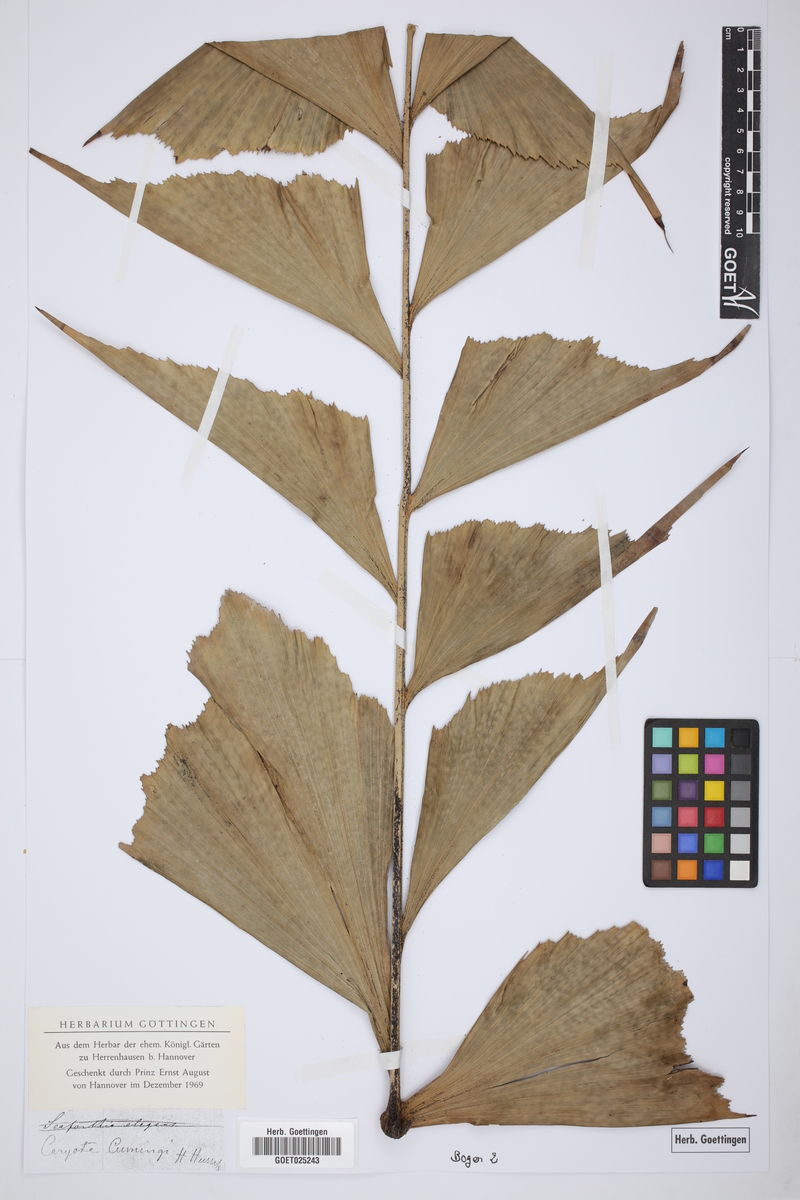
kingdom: Plantae
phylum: Tracheophyta
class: Liliopsida
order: Arecales
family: Arecaceae
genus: Caryota
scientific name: Caryota cumingii
